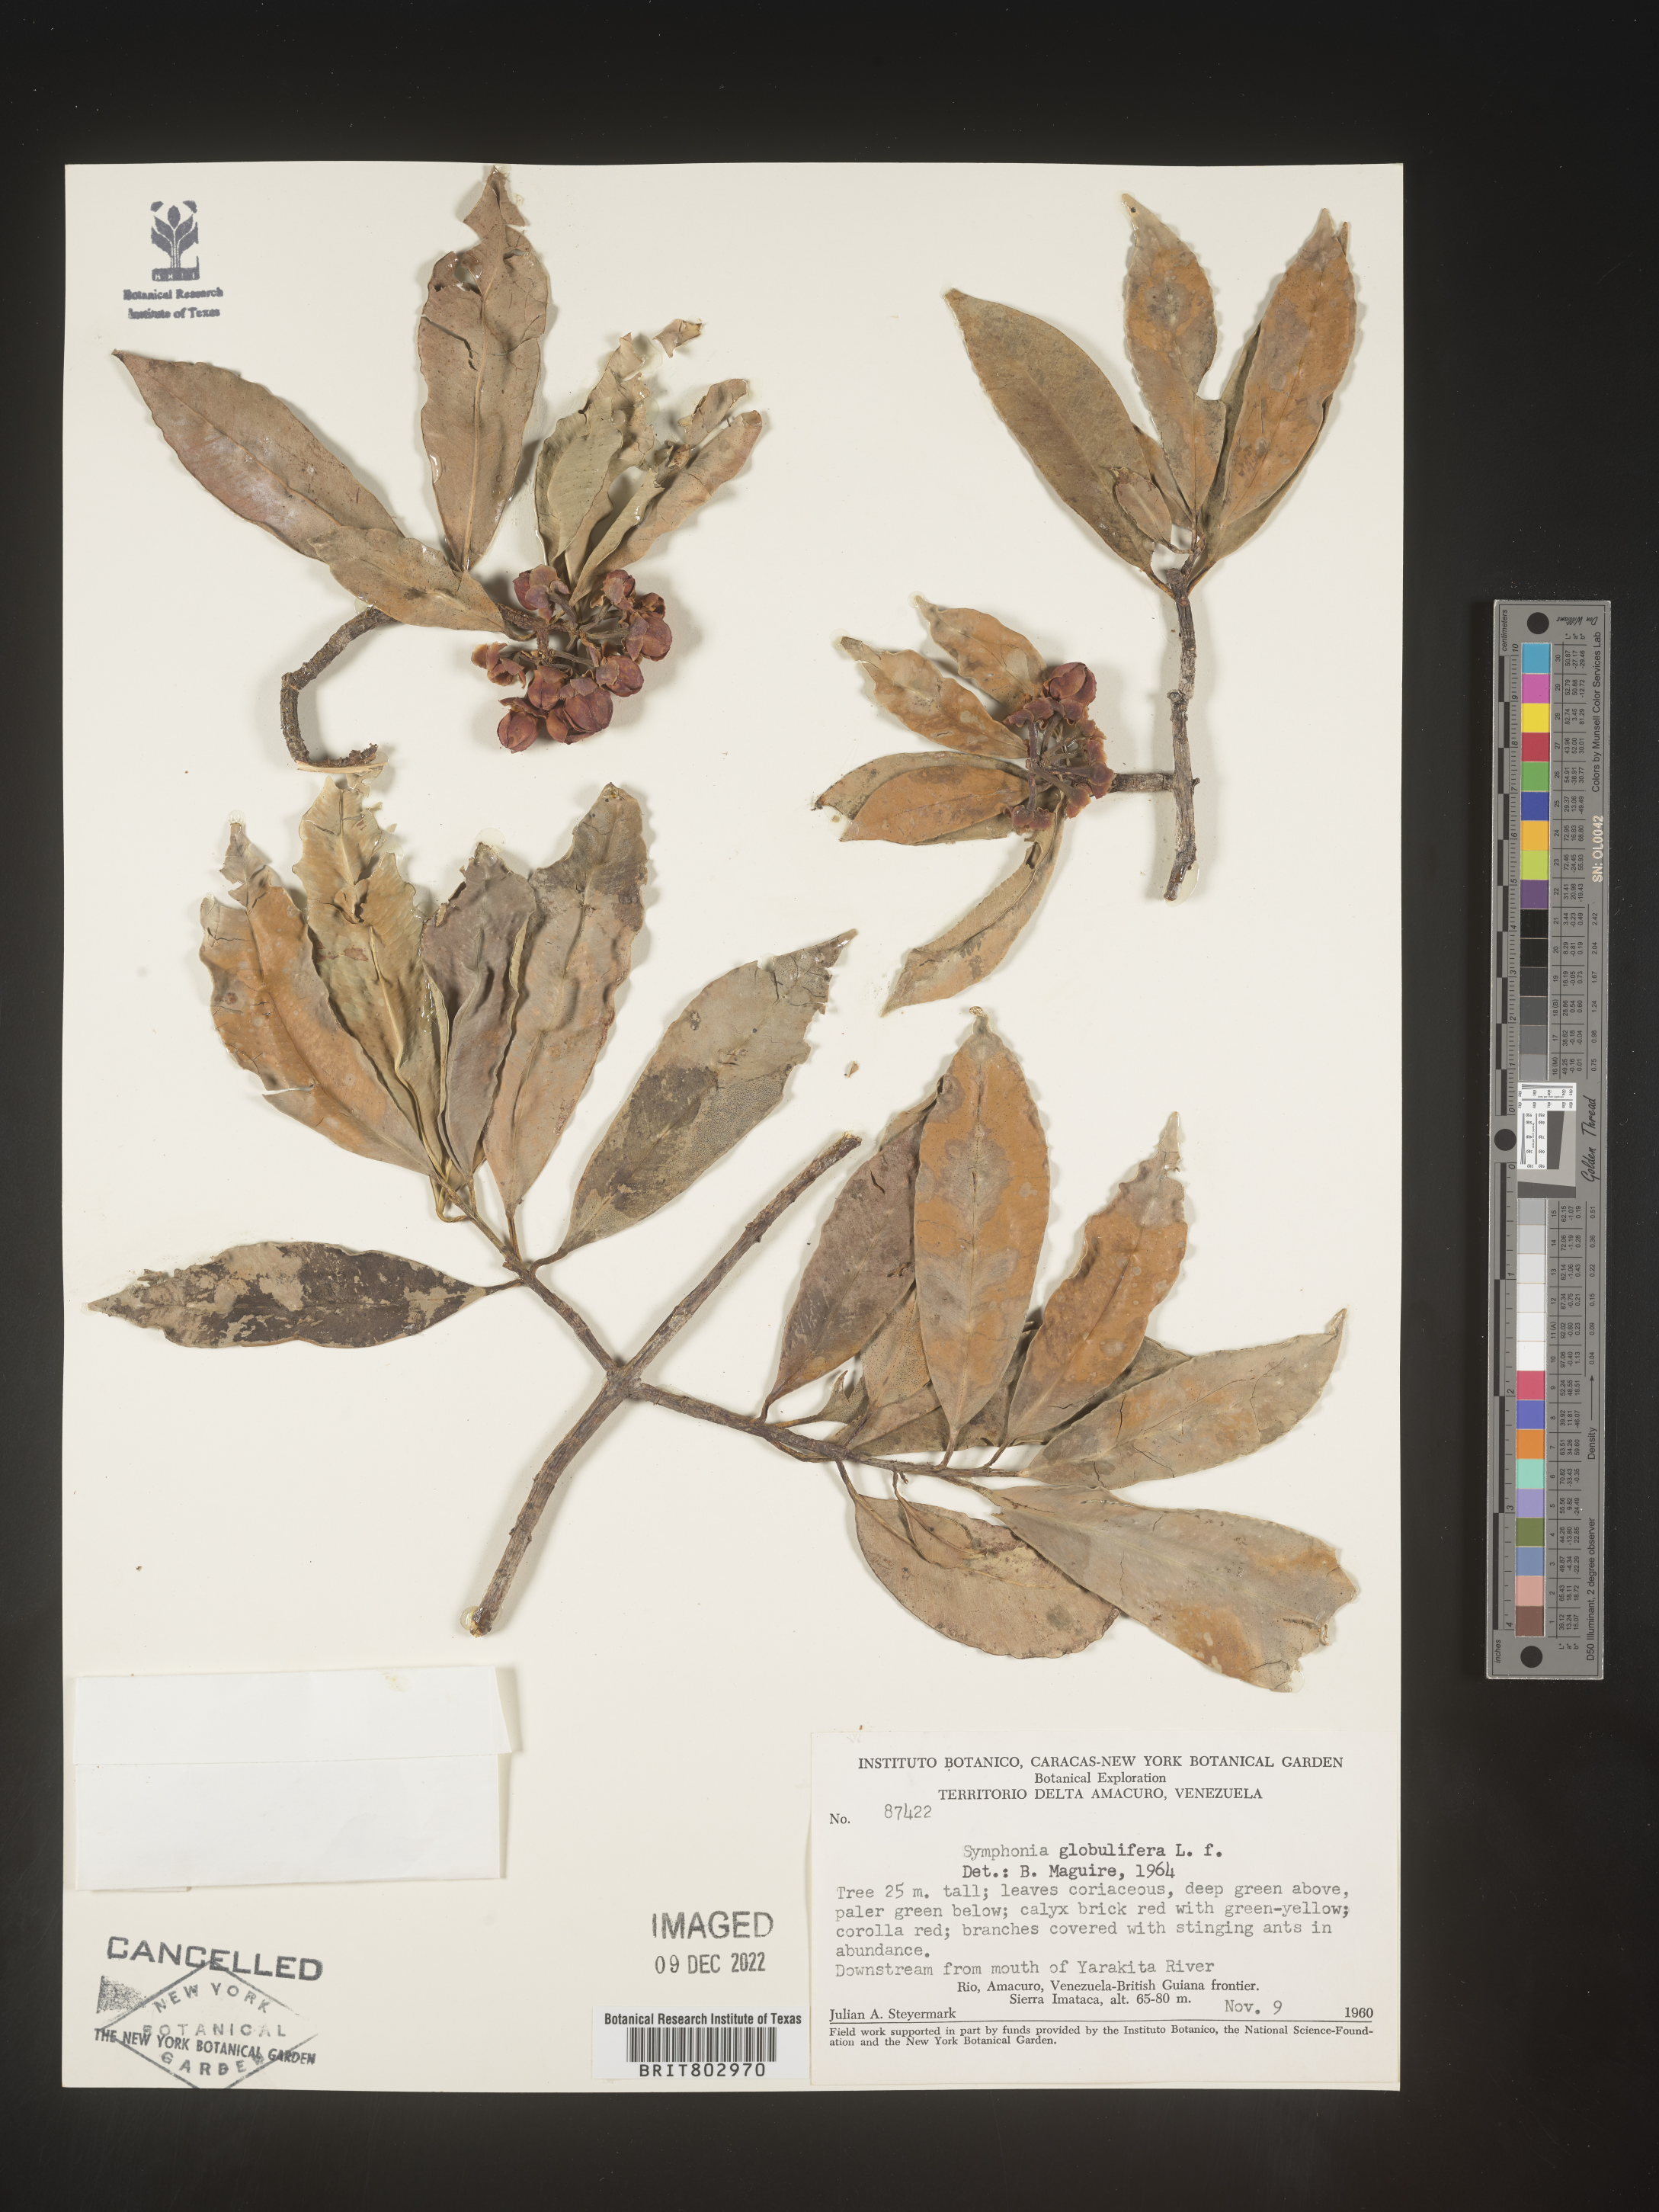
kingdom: Plantae
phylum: Tracheophyta
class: Magnoliopsida
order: Malpighiales
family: Clusiaceae
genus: Symphonia
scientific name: Symphonia globulifera
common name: Boarwood
